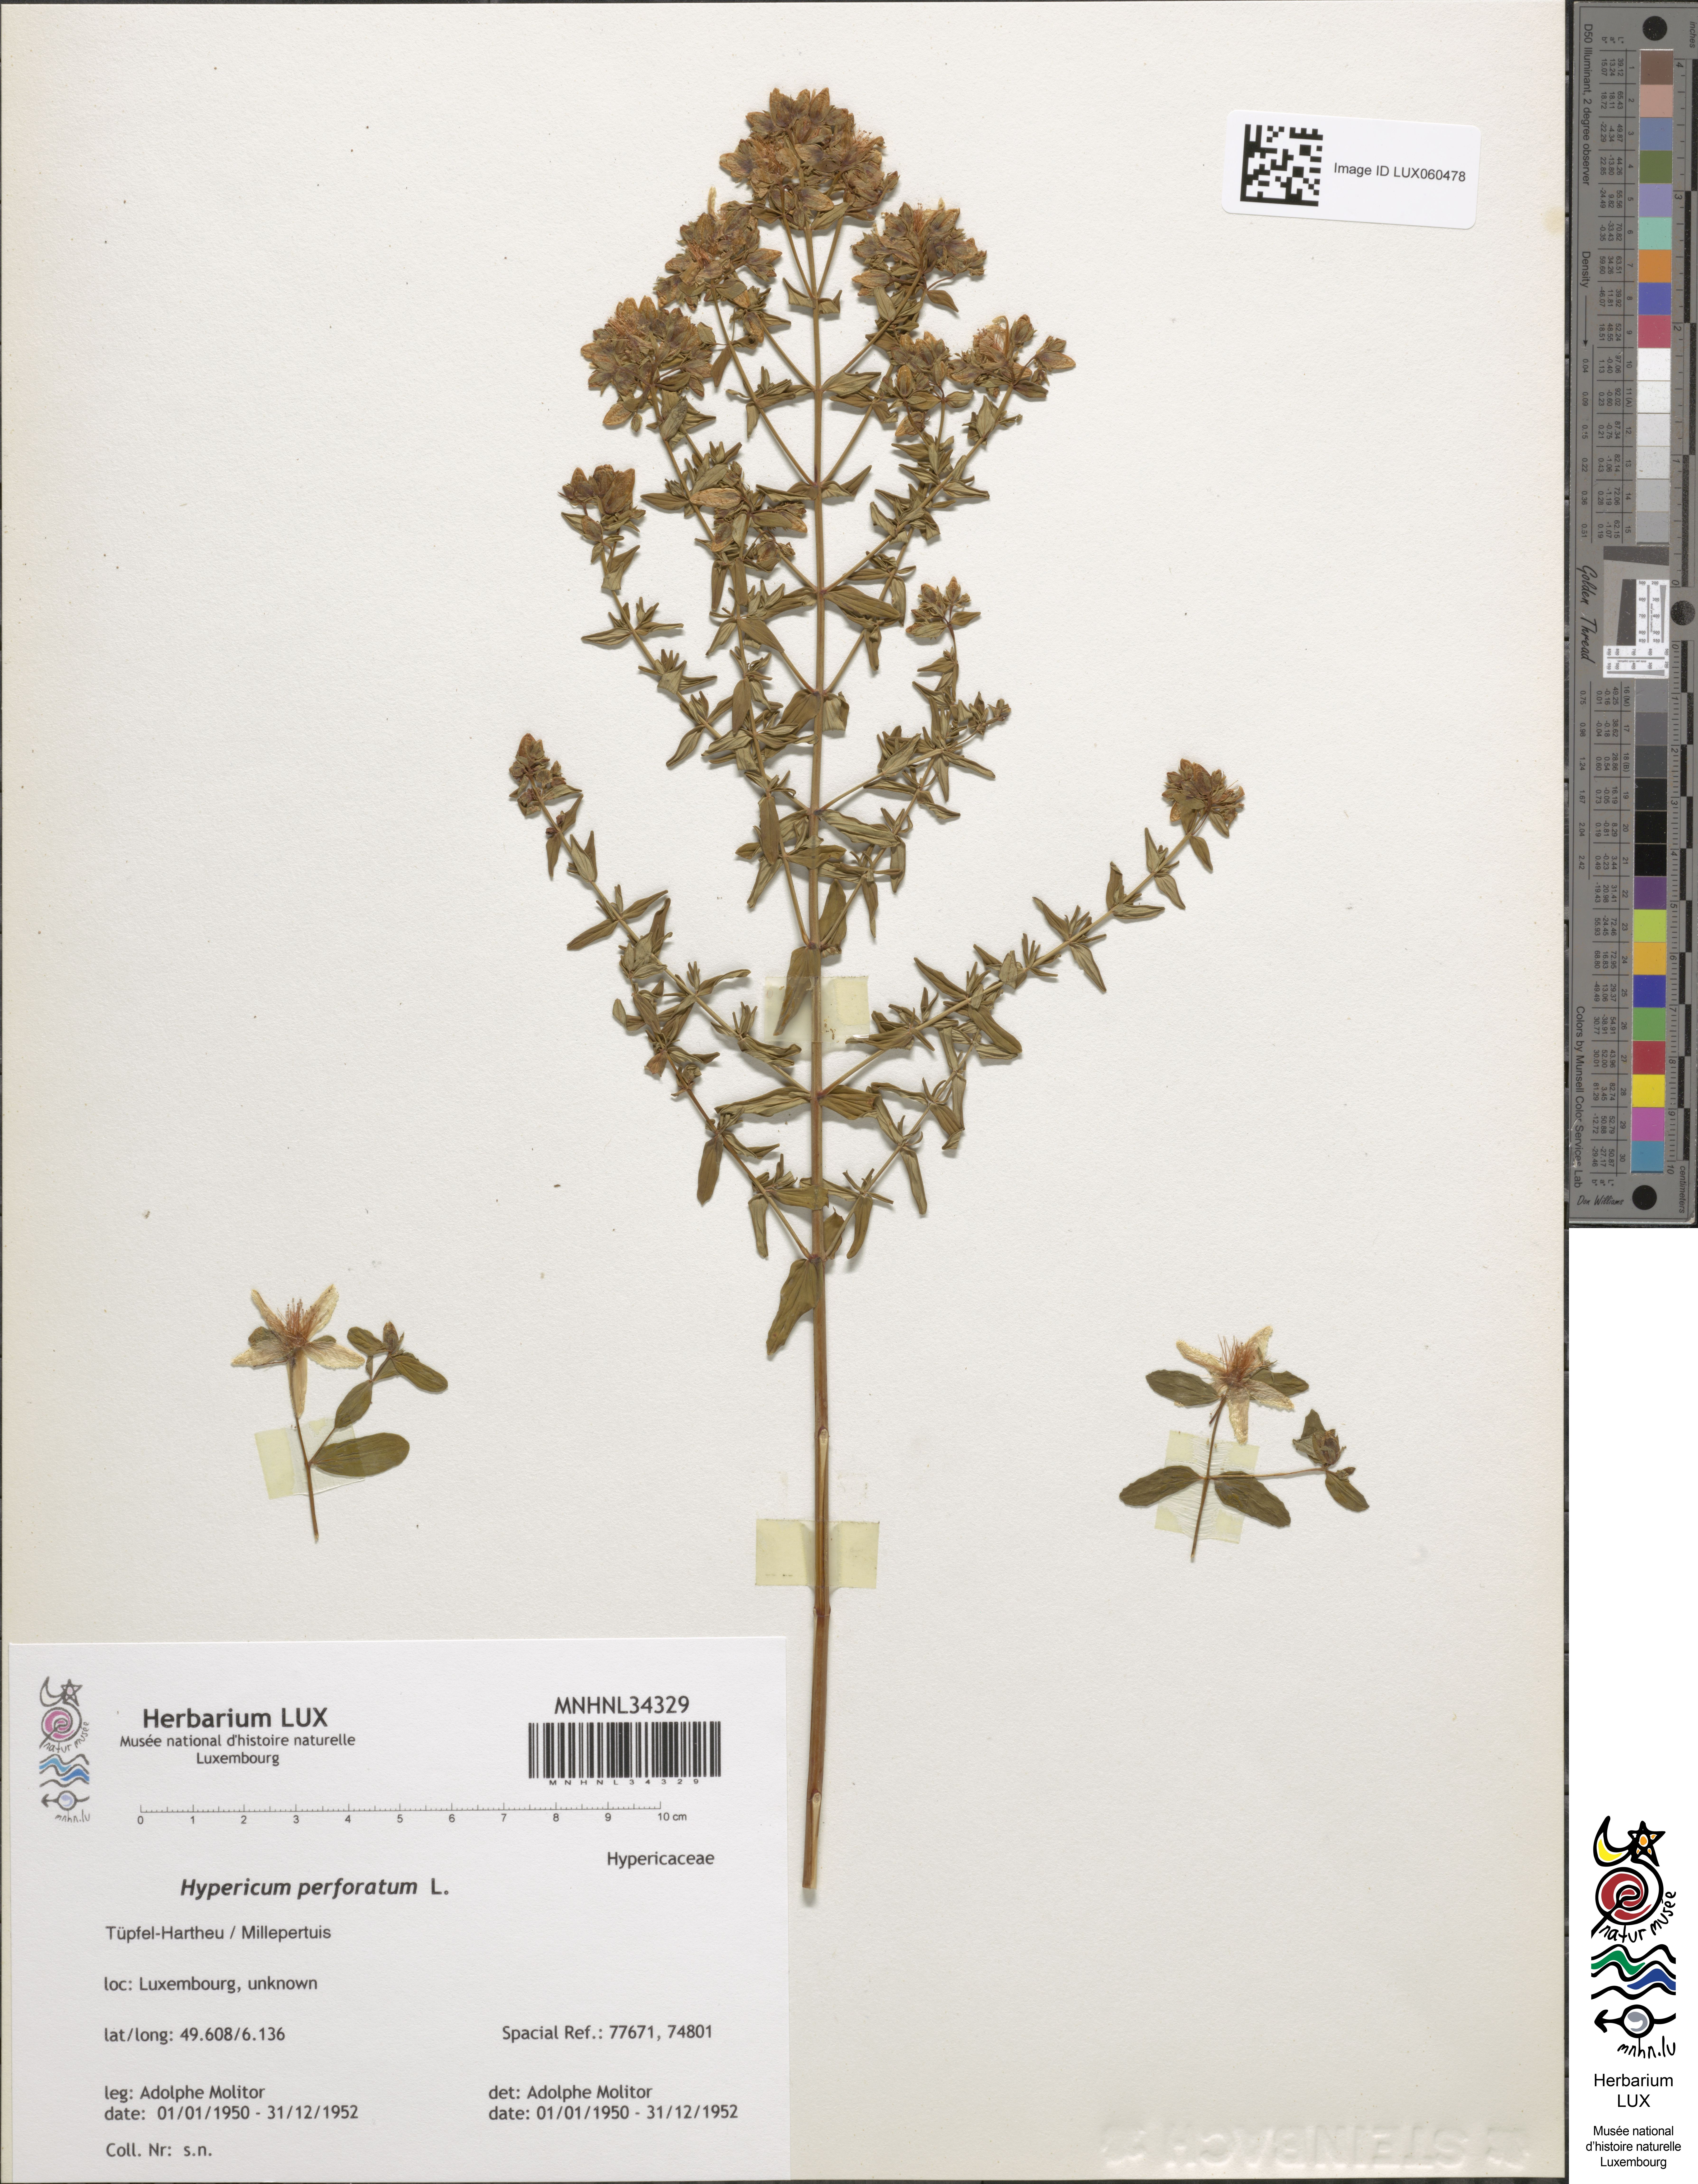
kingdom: Plantae
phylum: Tracheophyta
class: Magnoliopsida
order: Malpighiales
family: Hypericaceae
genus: Hypericum
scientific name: Hypericum perforatum
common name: Common st. johnswort
